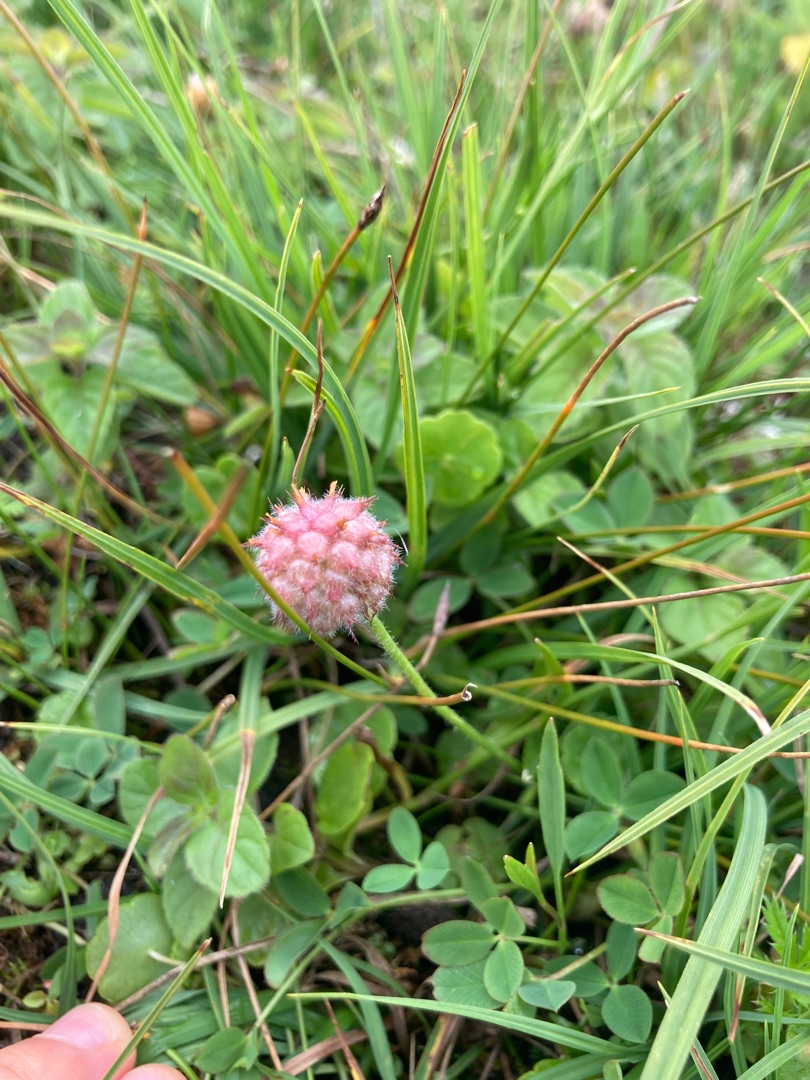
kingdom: Plantae
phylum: Tracheophyta
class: Magnoliopsida
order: Fabales
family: Fabaceae
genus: Trifolium
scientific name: Trifolium fragiferum
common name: Jordbær-kløver
